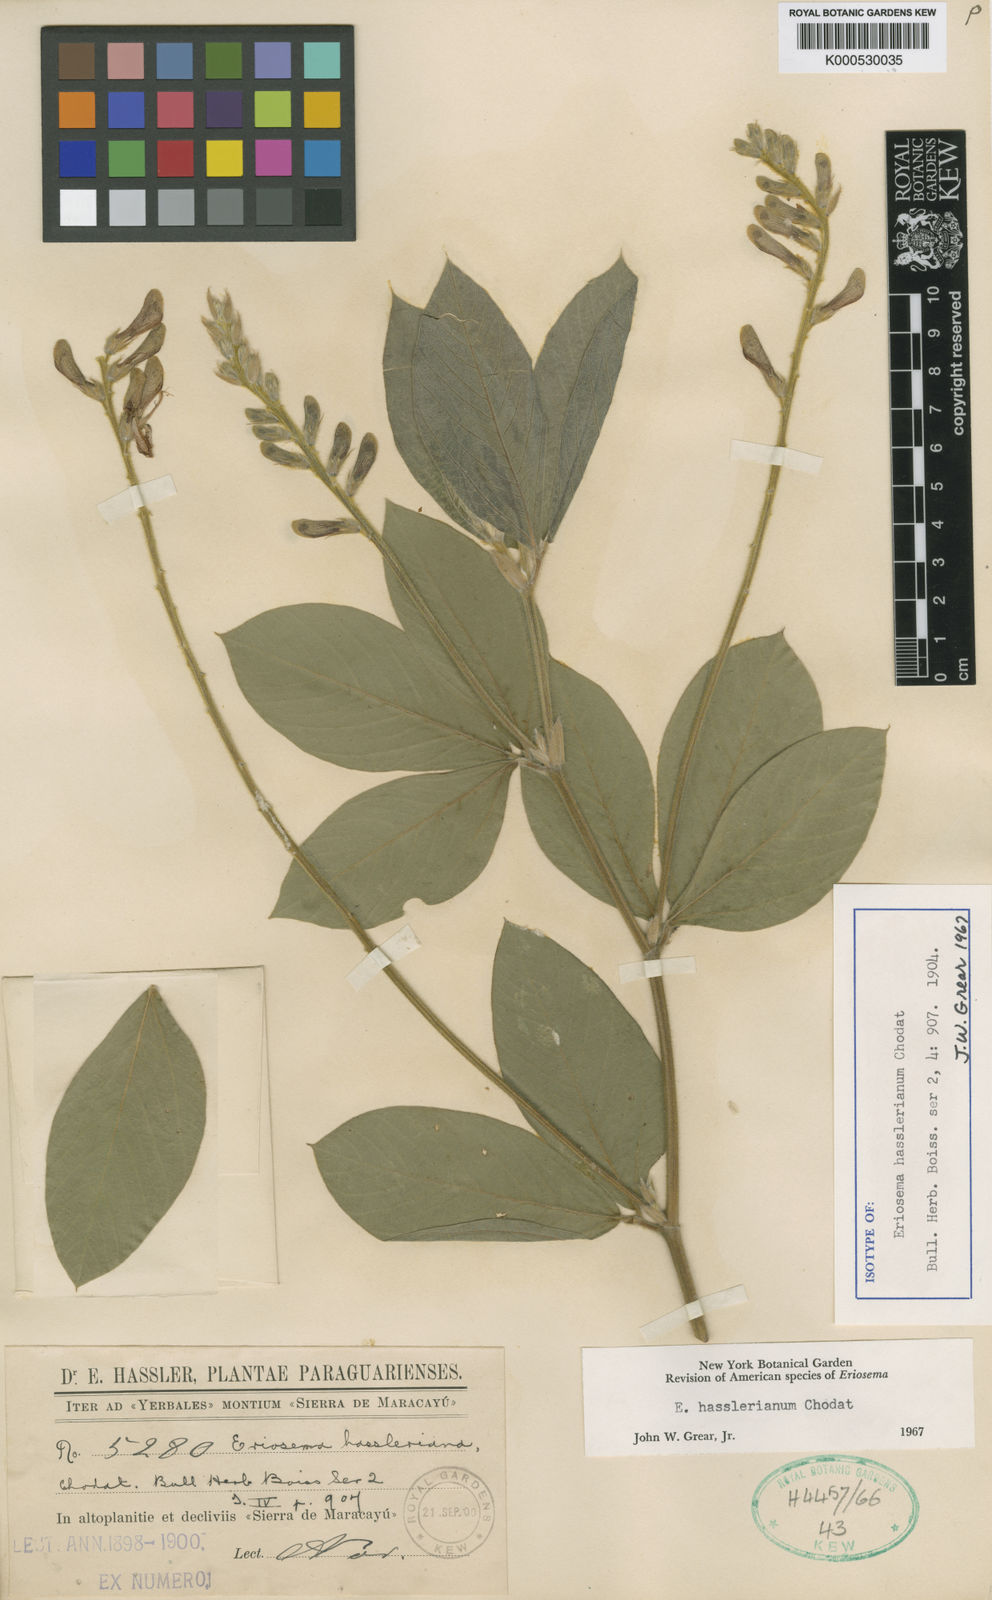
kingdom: Plantae
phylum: Tracheophyta
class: Magnoliopsida
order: Fabales
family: Fabaceae
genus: Eriosema
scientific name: Eriosema hasslerianum
